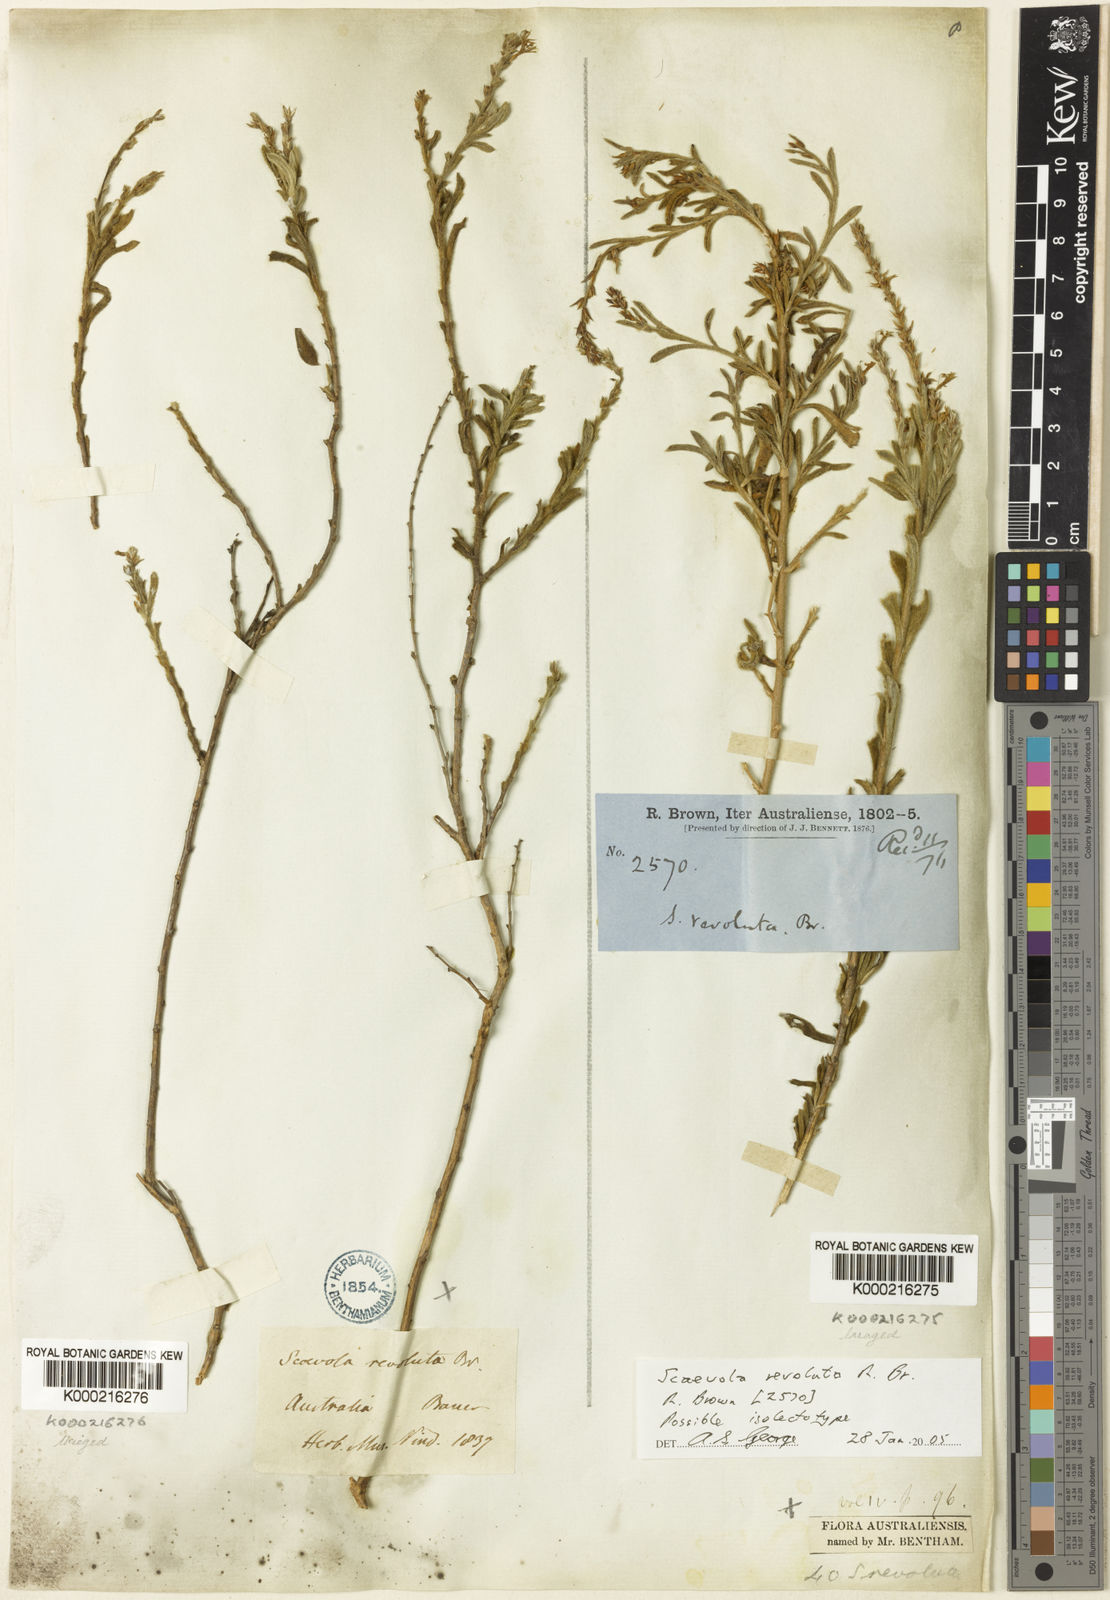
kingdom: Plantae
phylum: Tracheophyta
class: Magnoliopsida
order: Asterales
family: Goodeniaceae
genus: Scaevola
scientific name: Scaevola revoluta
